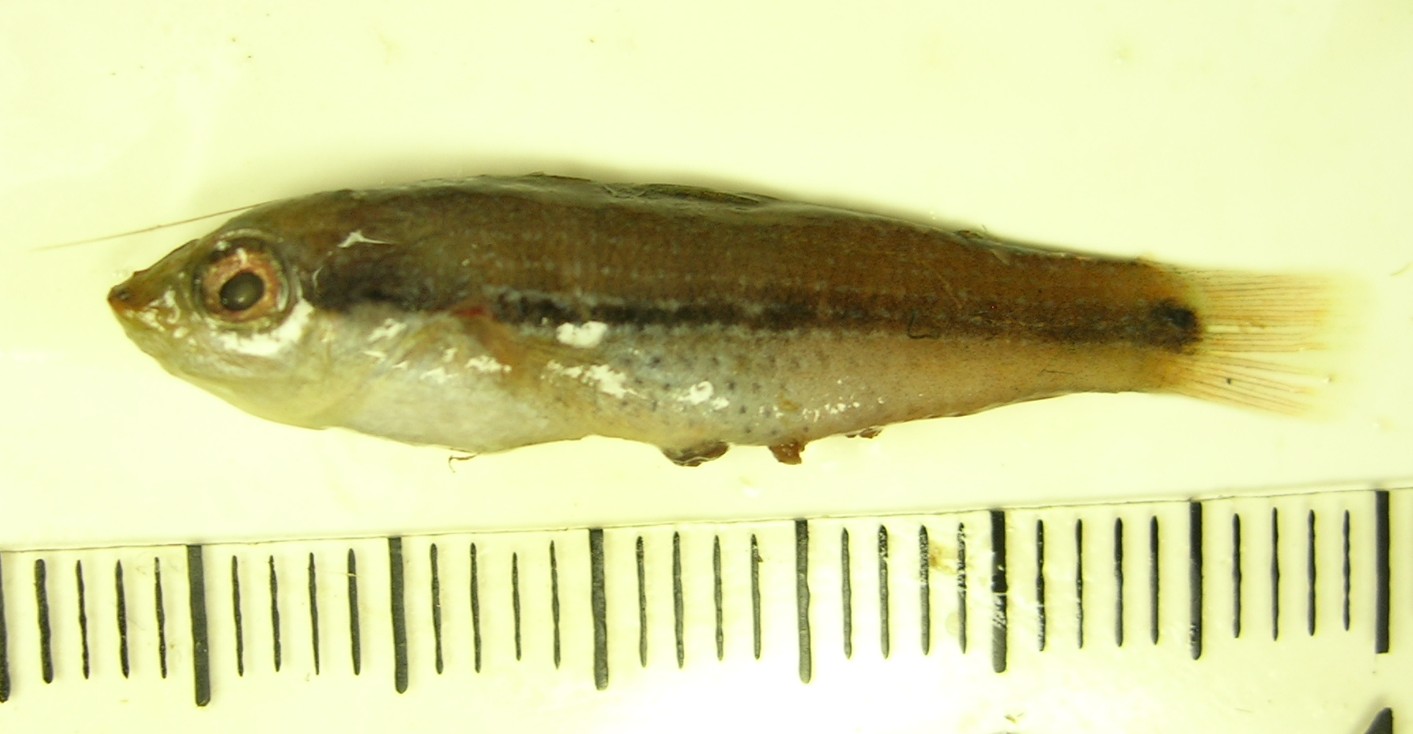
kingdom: Animalia
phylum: Chordata
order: Perciformes
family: Labridae
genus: Stethojulis
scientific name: Stethojulis interrupta
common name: Cutribbon wrasse
